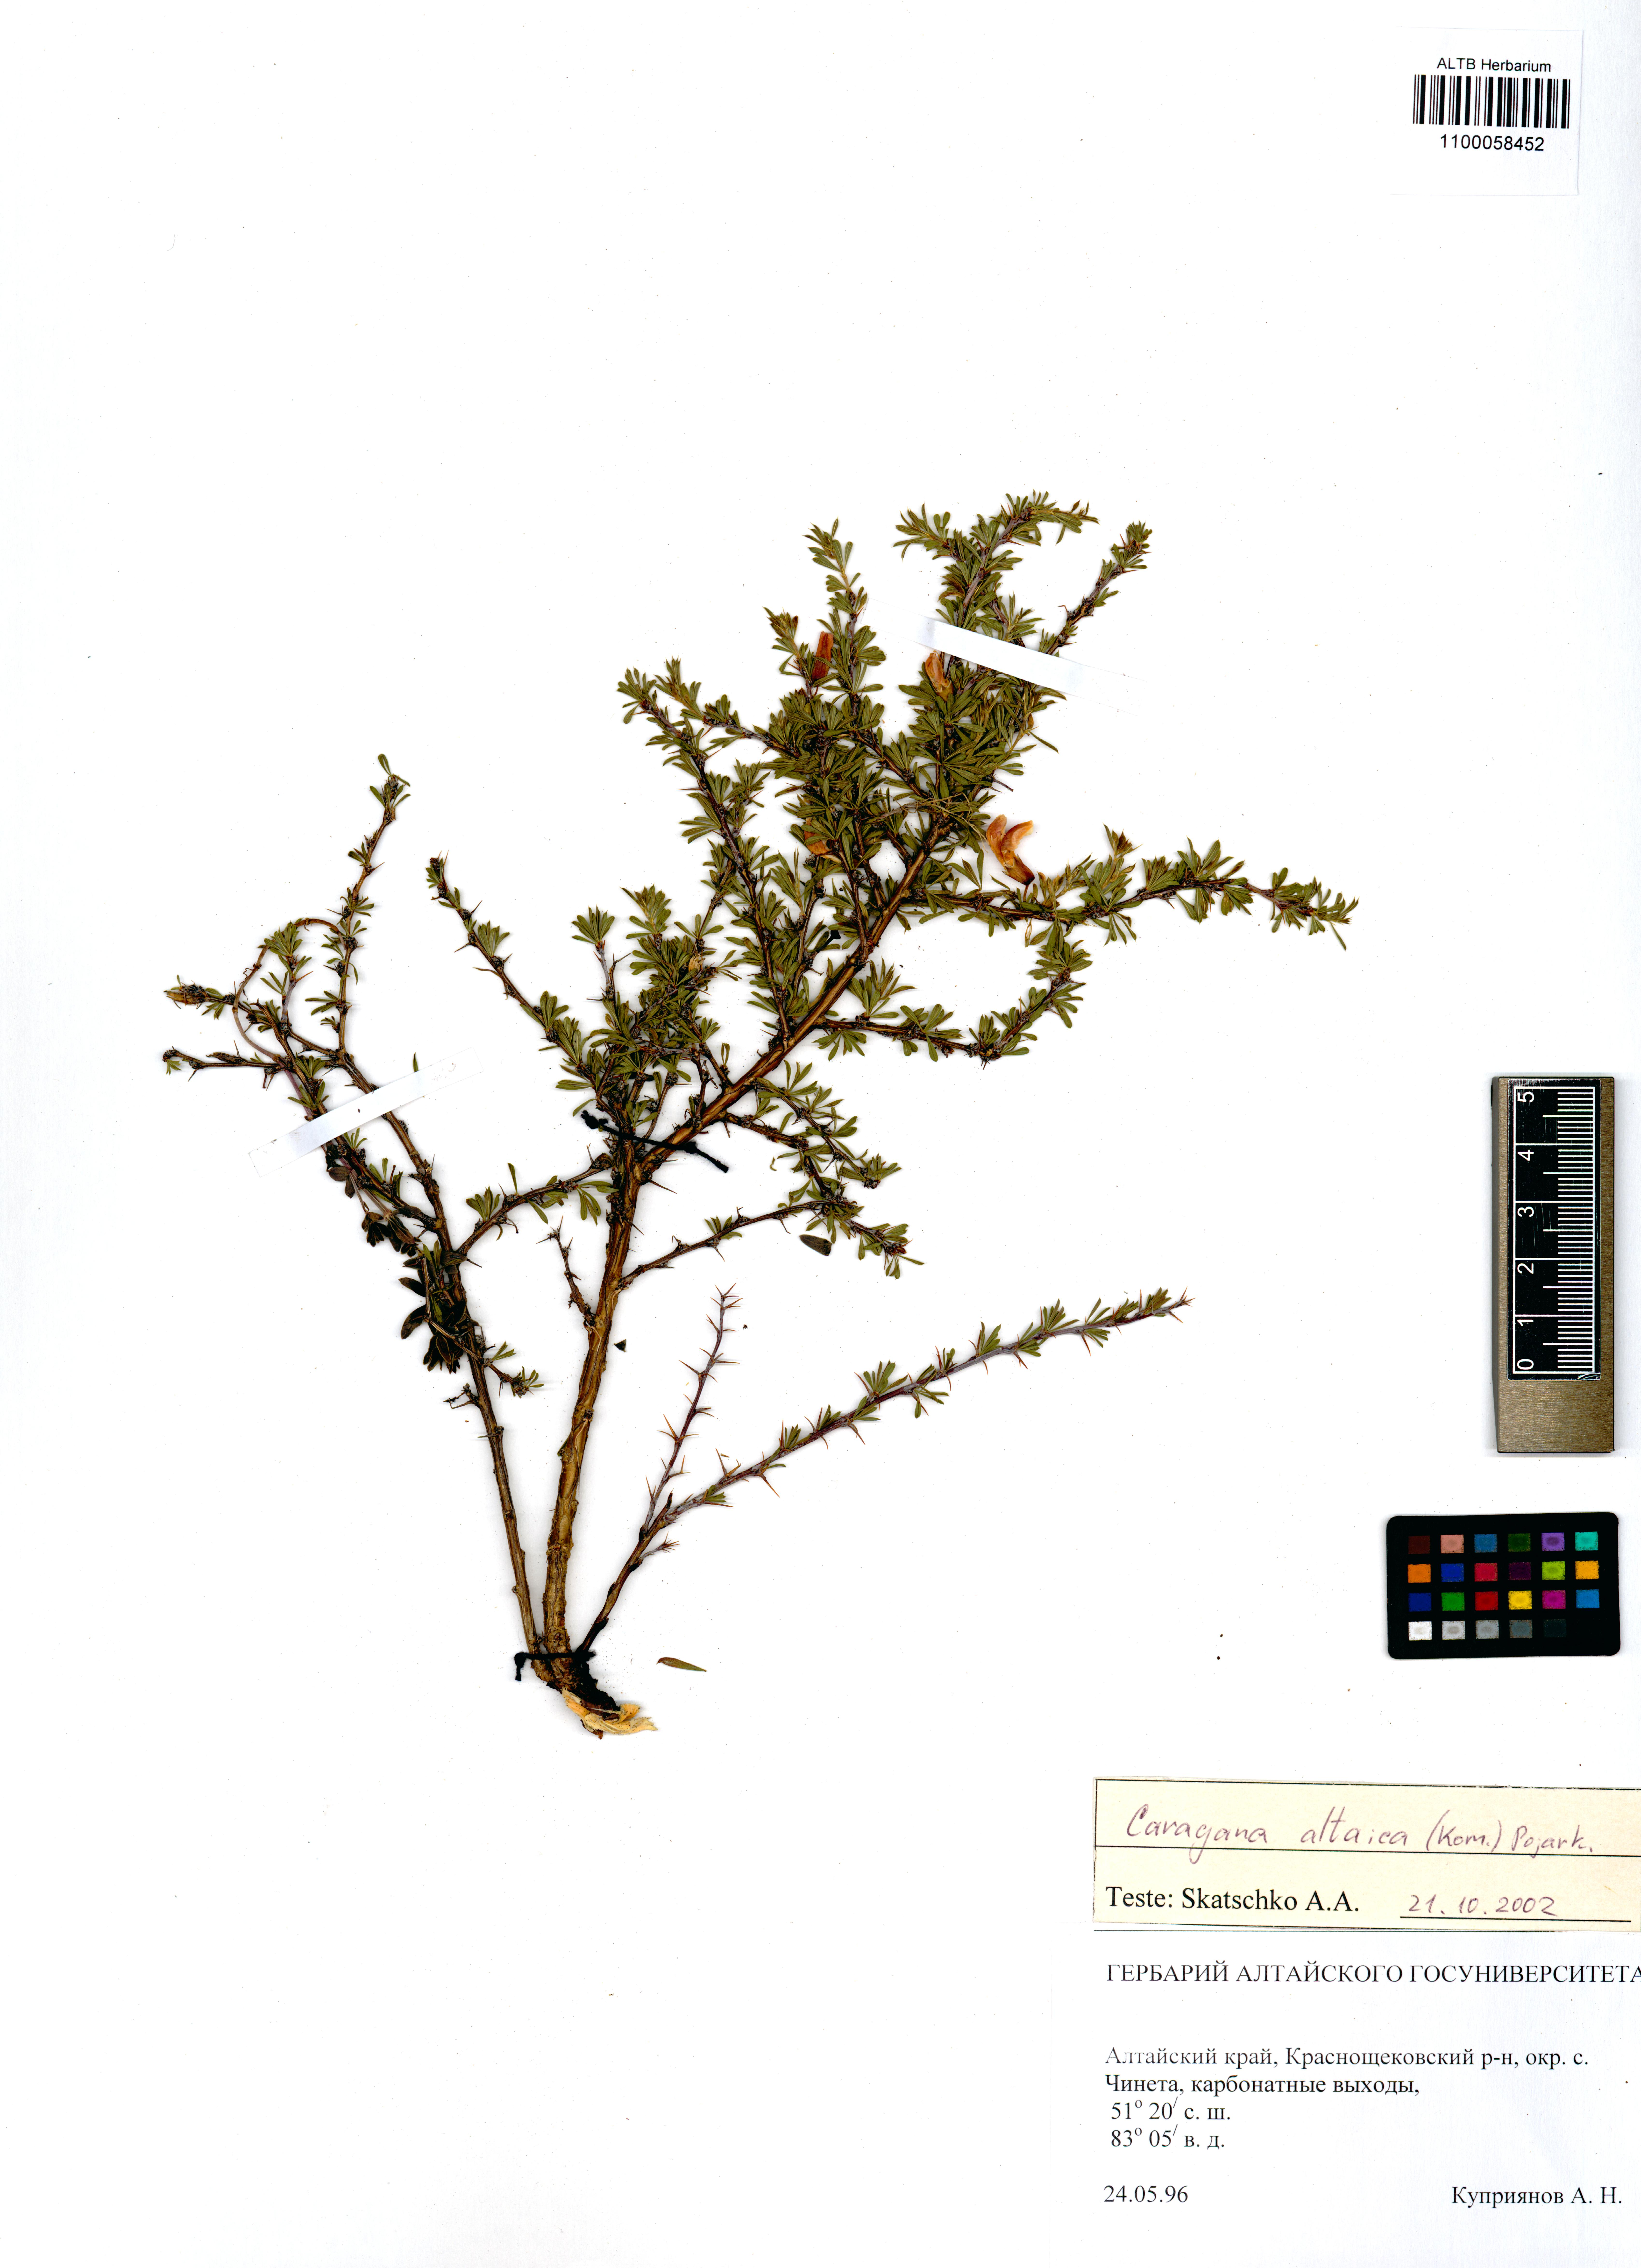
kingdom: Plantae
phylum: Tracheophyta
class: Magnoliopsida
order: Fabales
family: Fabaceae
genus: Caragana
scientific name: Caragana pygmaea
